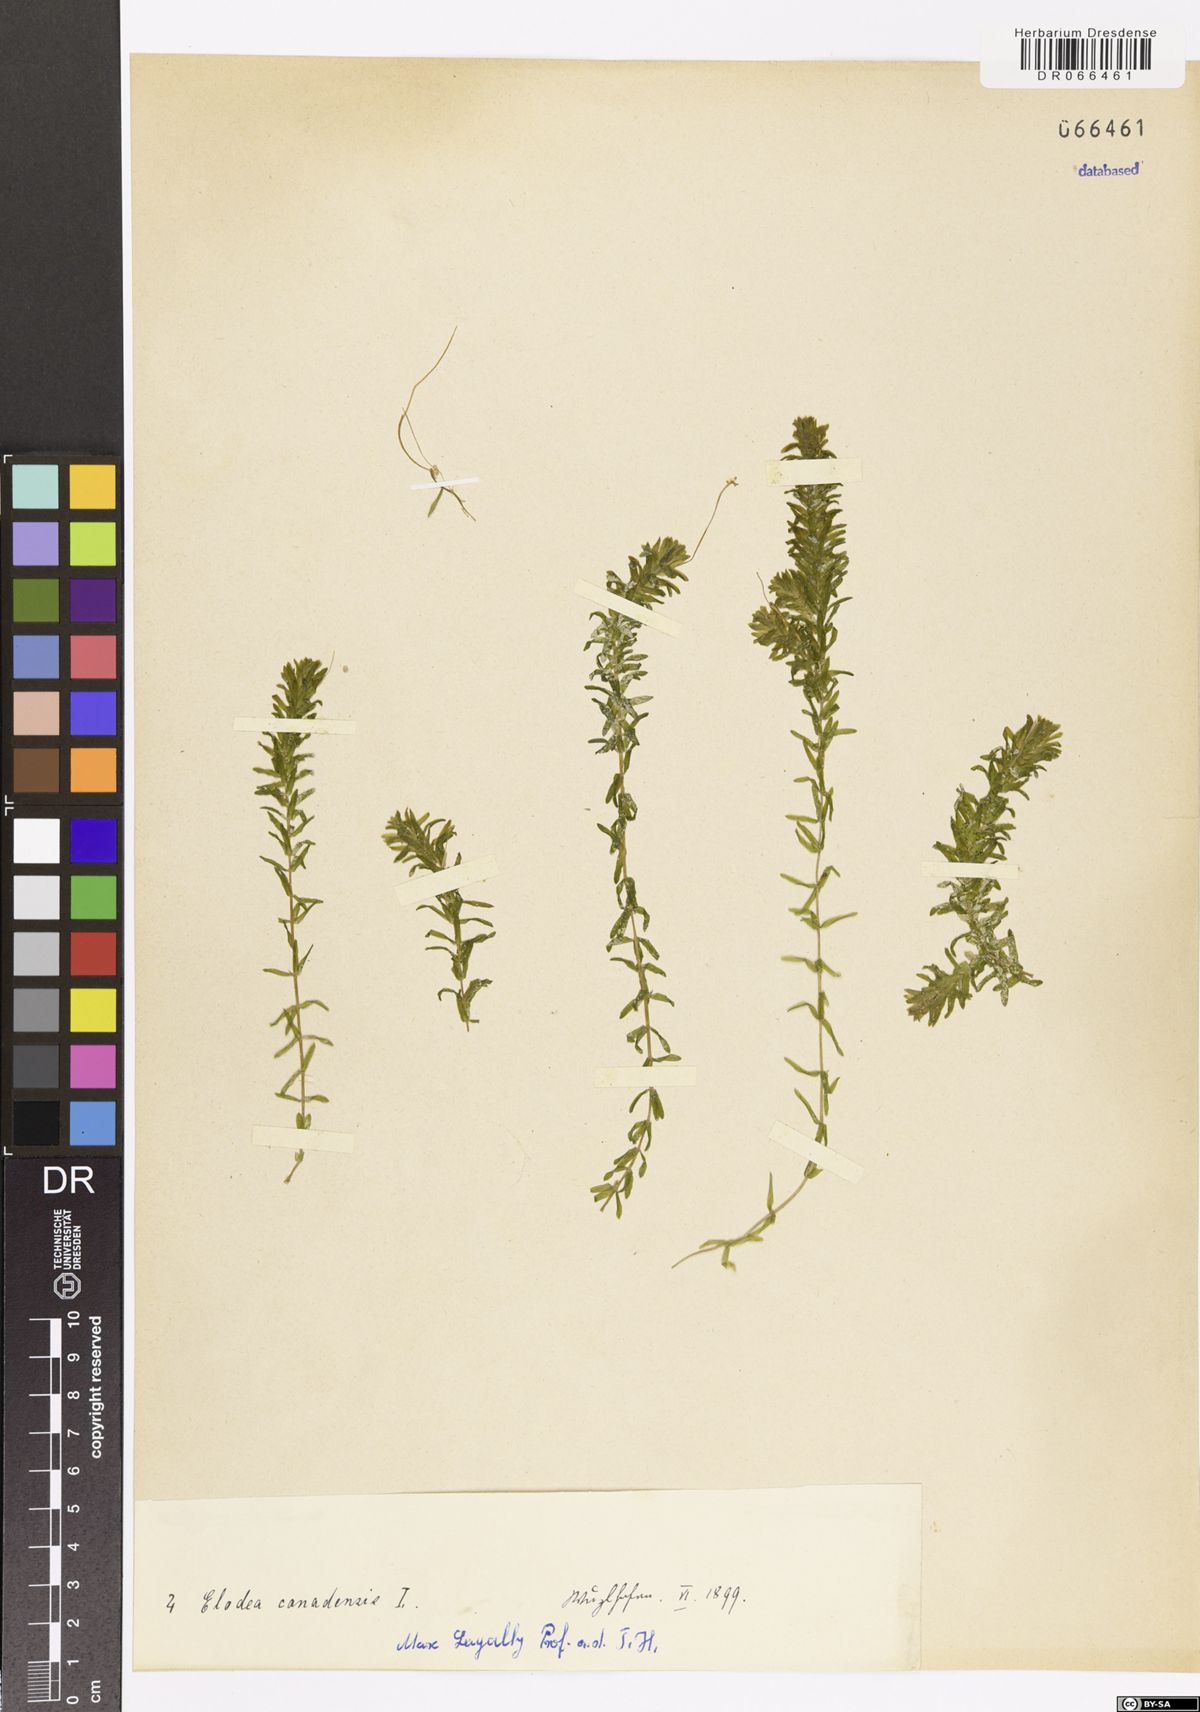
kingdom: Plantae
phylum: Tracheophyta
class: Liliopsida
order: Alismatales
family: Hydrocharitaceae
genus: Elodea
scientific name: Elodea canadensis
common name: Canadian waterweed
